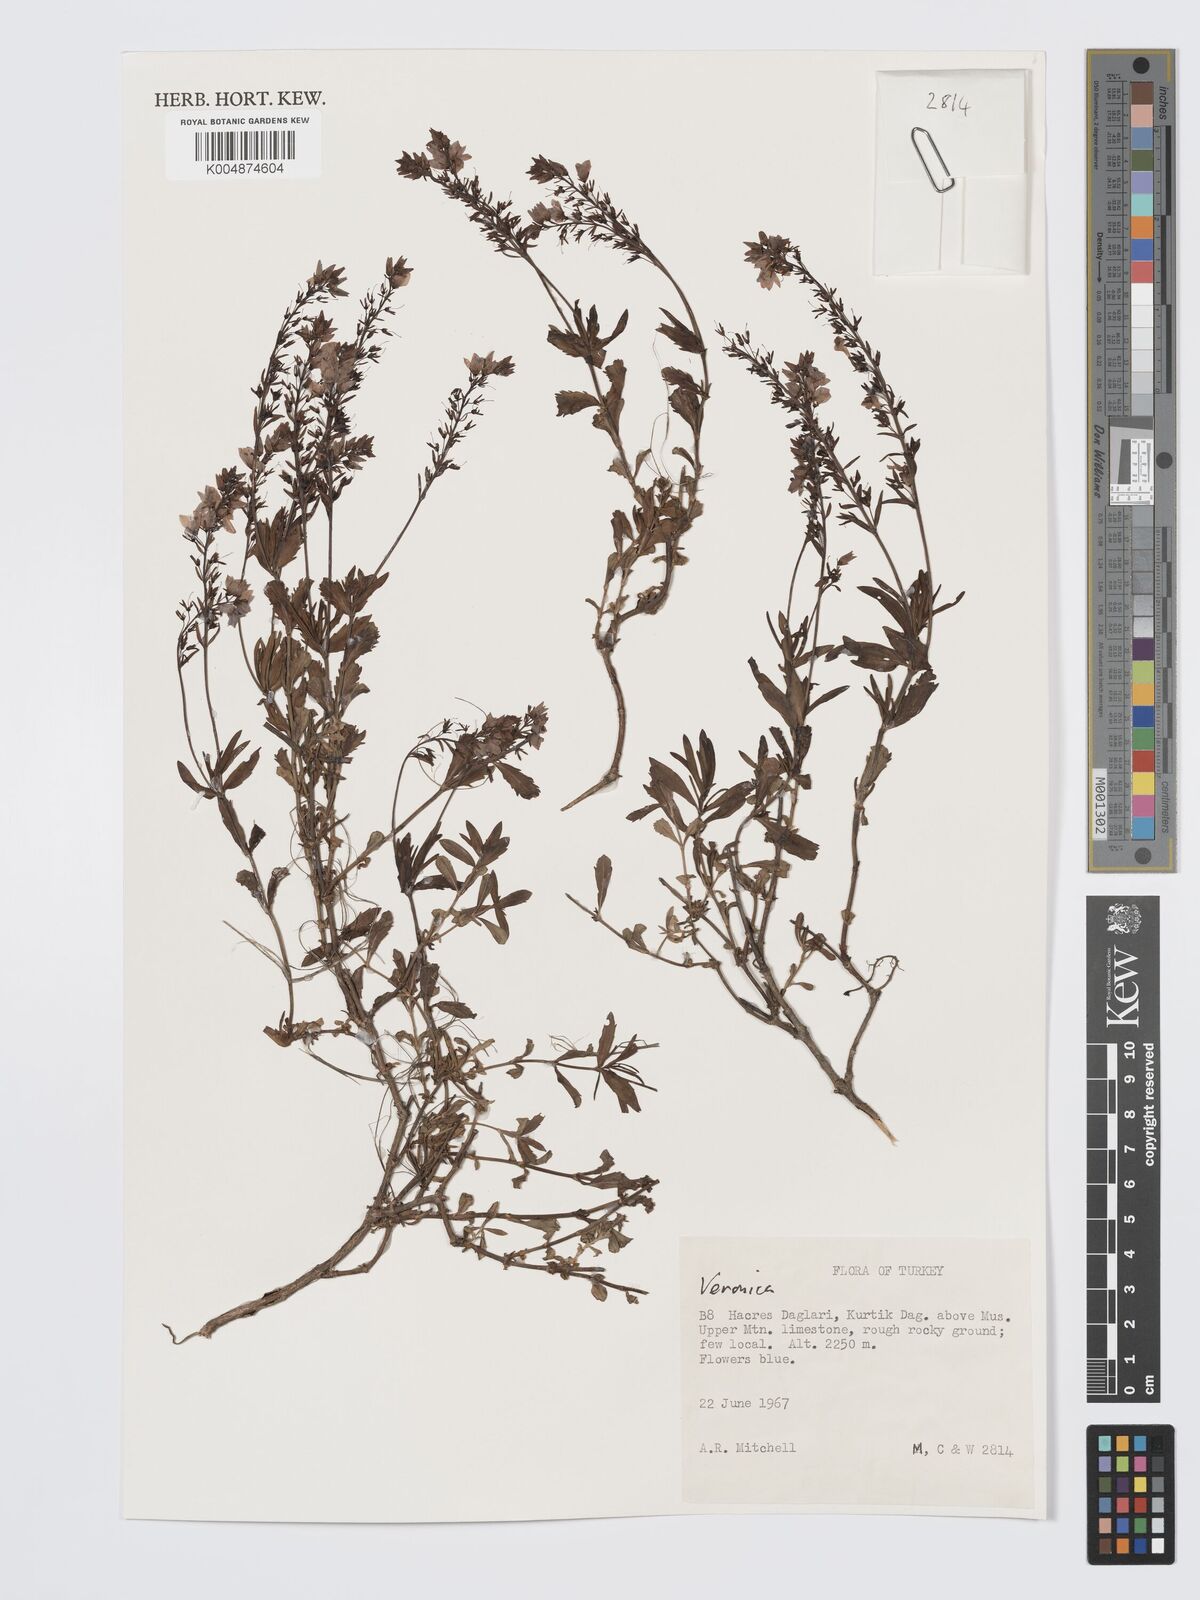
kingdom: Plantae
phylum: Tracheophyta
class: Magnoliopsida
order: Lamiales
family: Plantaginaceae
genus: Veronica
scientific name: Veronica
